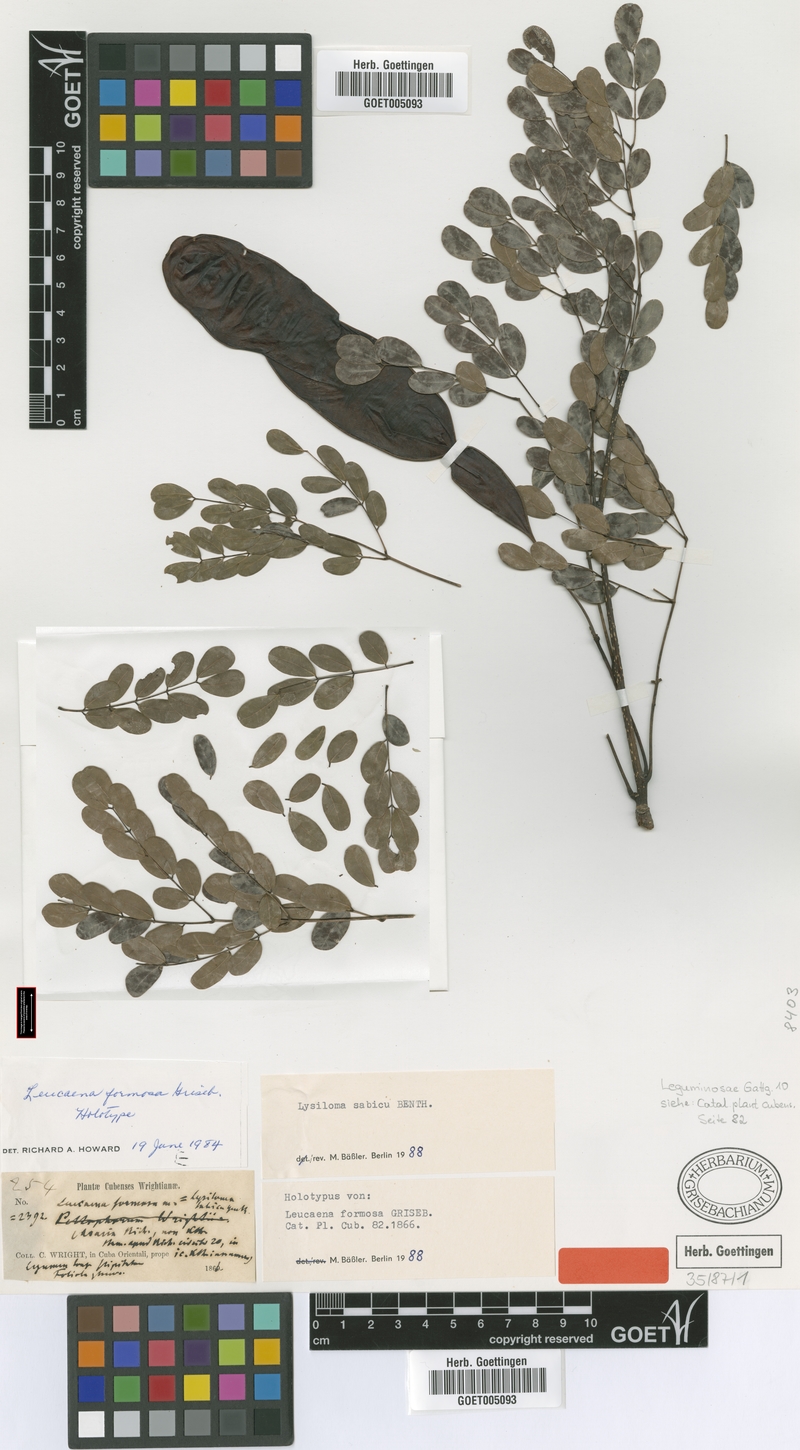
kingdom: Plantae
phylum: Tracheophyta
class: Magnoliopsida
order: Fabales
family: Fabaceae
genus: Lysiloma
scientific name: Lysiloma sabicu
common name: Horseflesh mahogany
